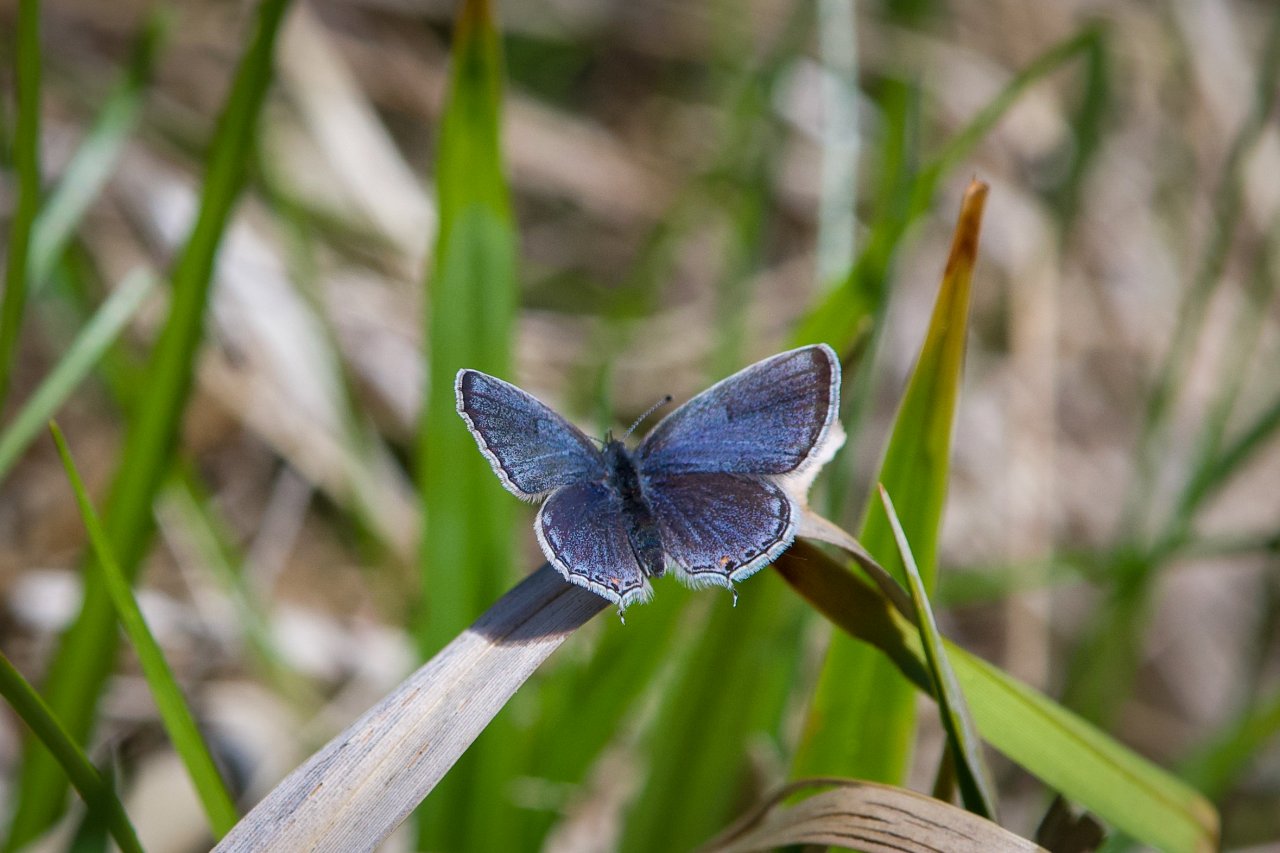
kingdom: Animalia
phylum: Arthropoda
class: Insecta
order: Lepidoptera
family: Lycaenidae
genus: Elkalyce
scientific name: Elkalyce comyntas
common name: Eastern Tailed-Blue
